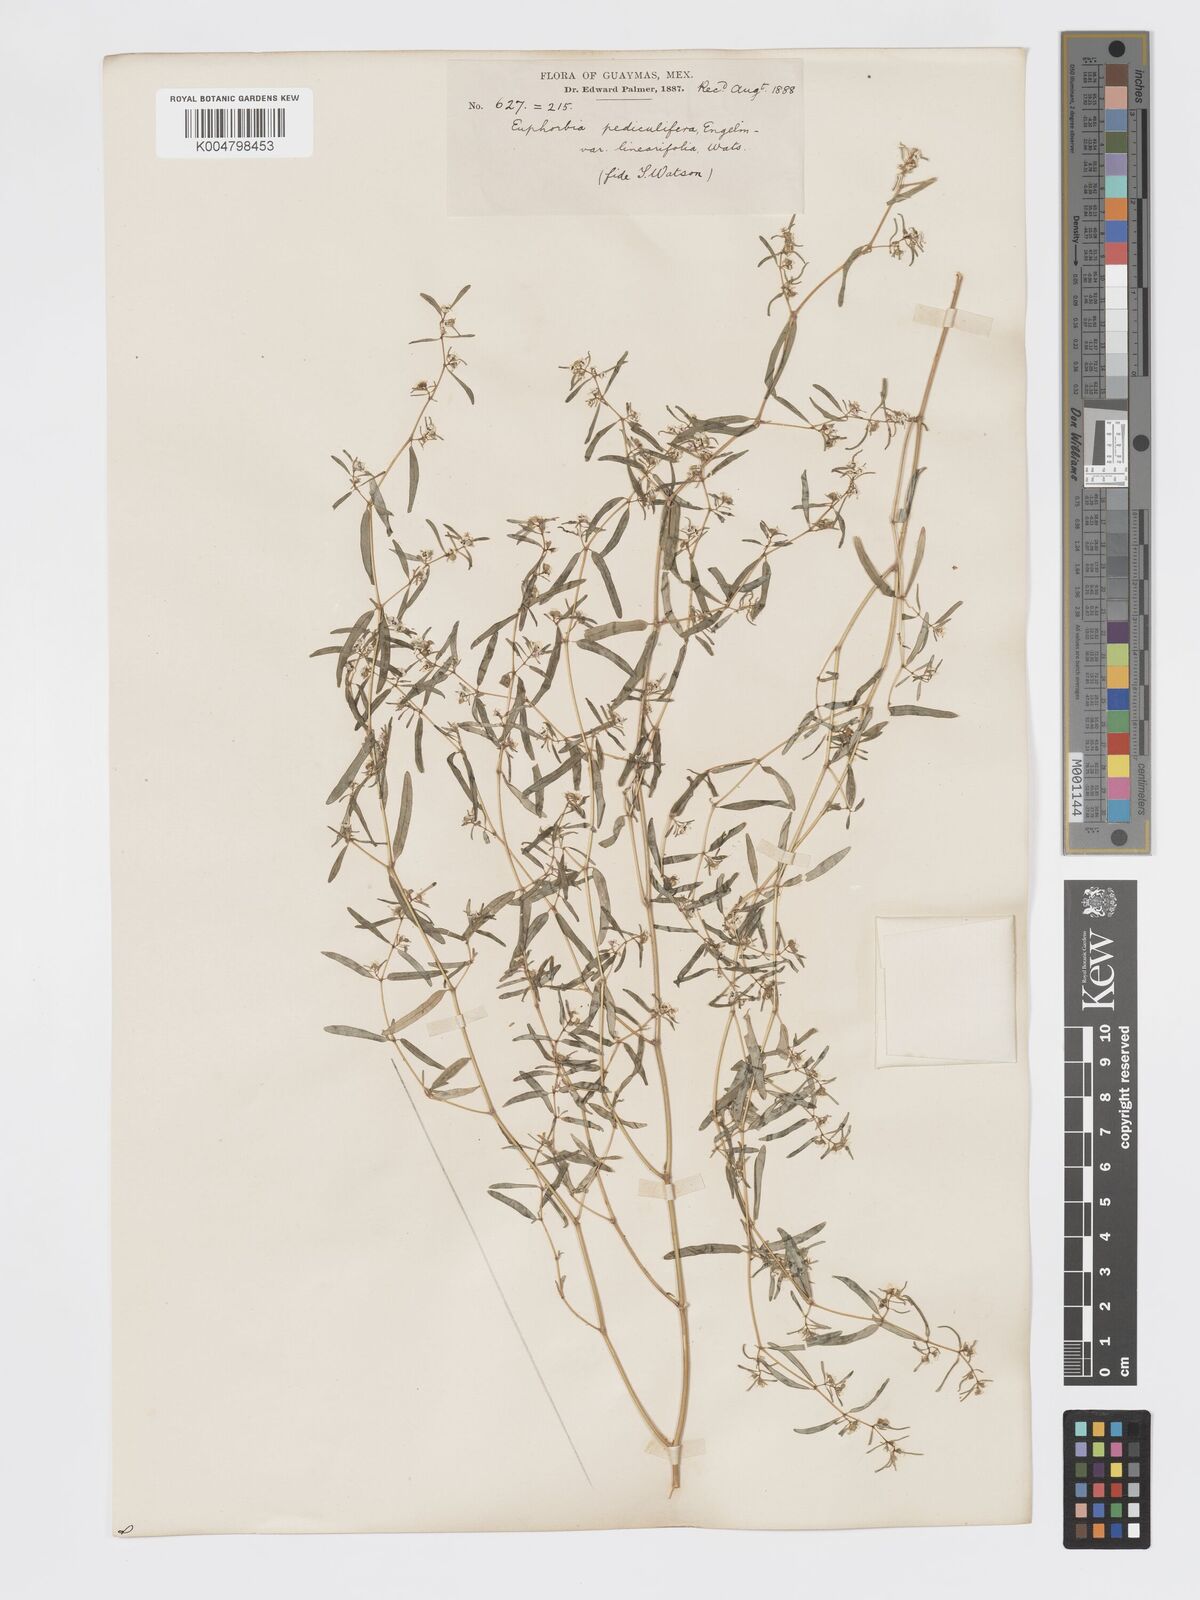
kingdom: Plantae
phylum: Tracheophyta
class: Magnoliopsida
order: Malpighiales
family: Euphorbiaceae
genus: Euphorbia
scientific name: Euphorbia pediculifera
